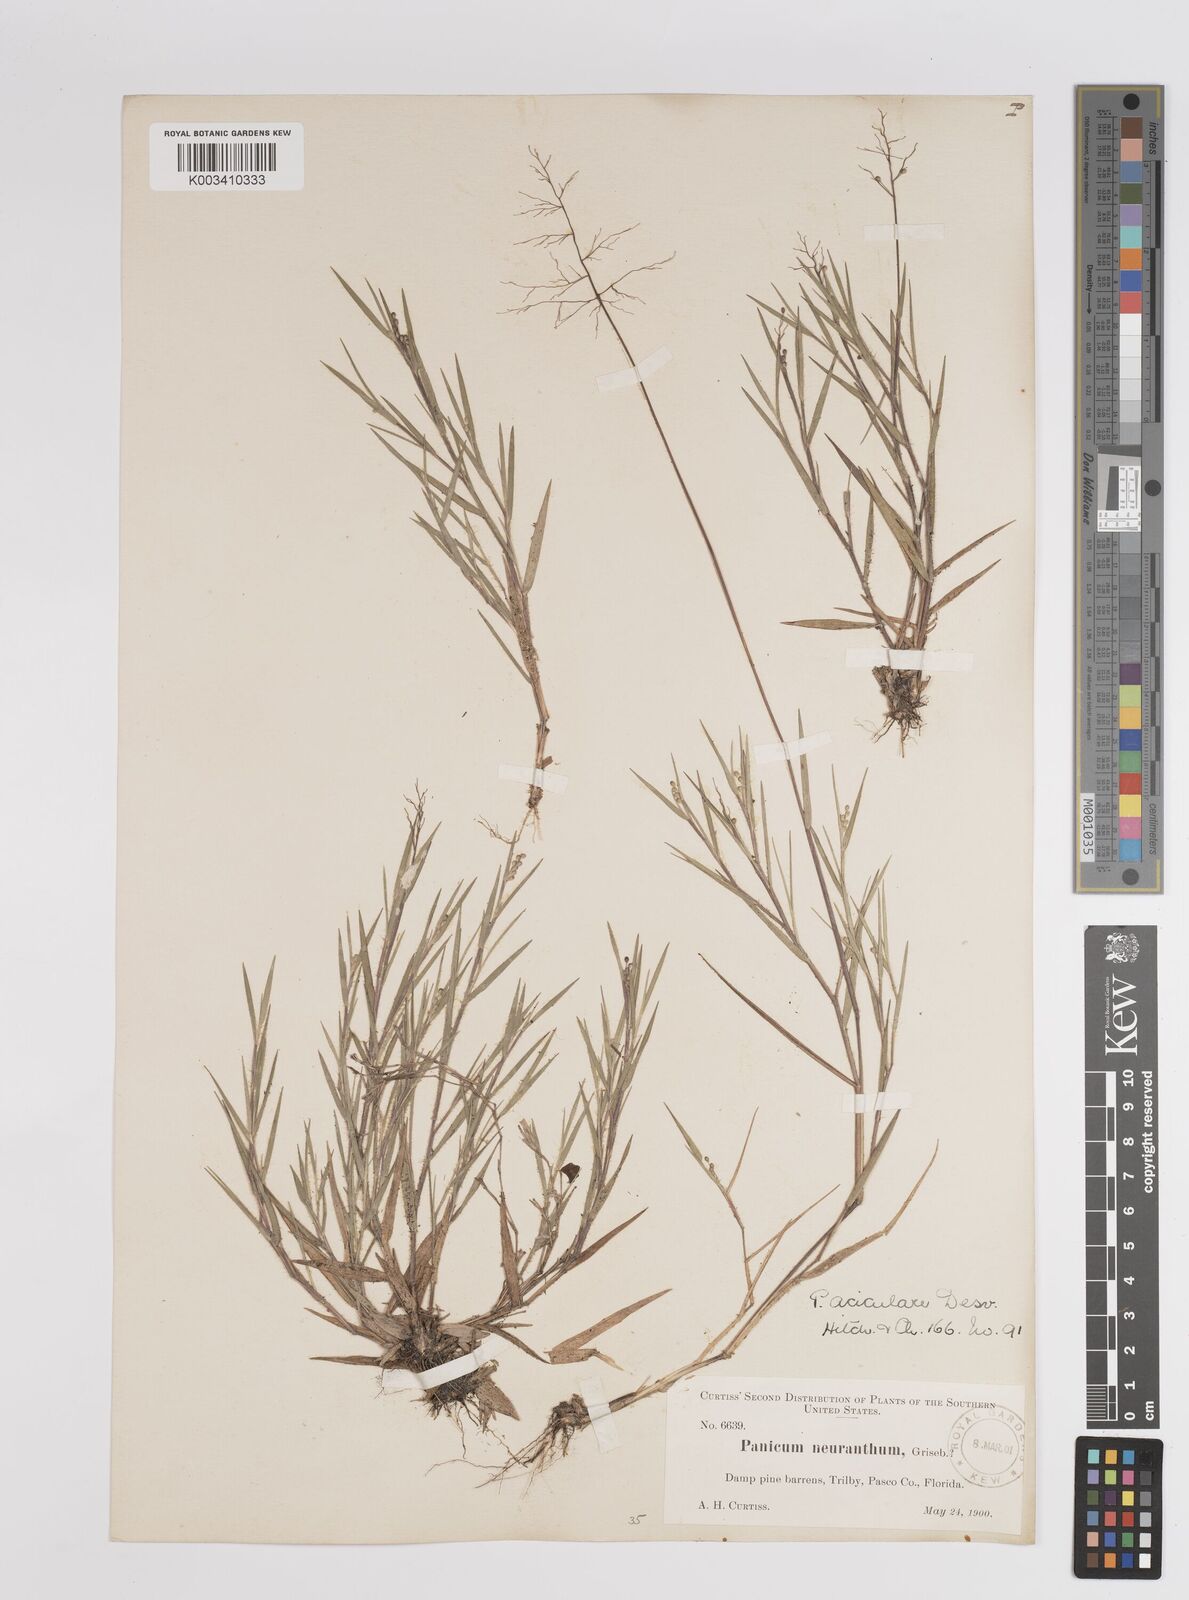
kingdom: Plantae
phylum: Tracheophyta
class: Liliopsida
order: Poales
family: Poaceae
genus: Dichanthelium
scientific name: Dichanthelium aciculare
